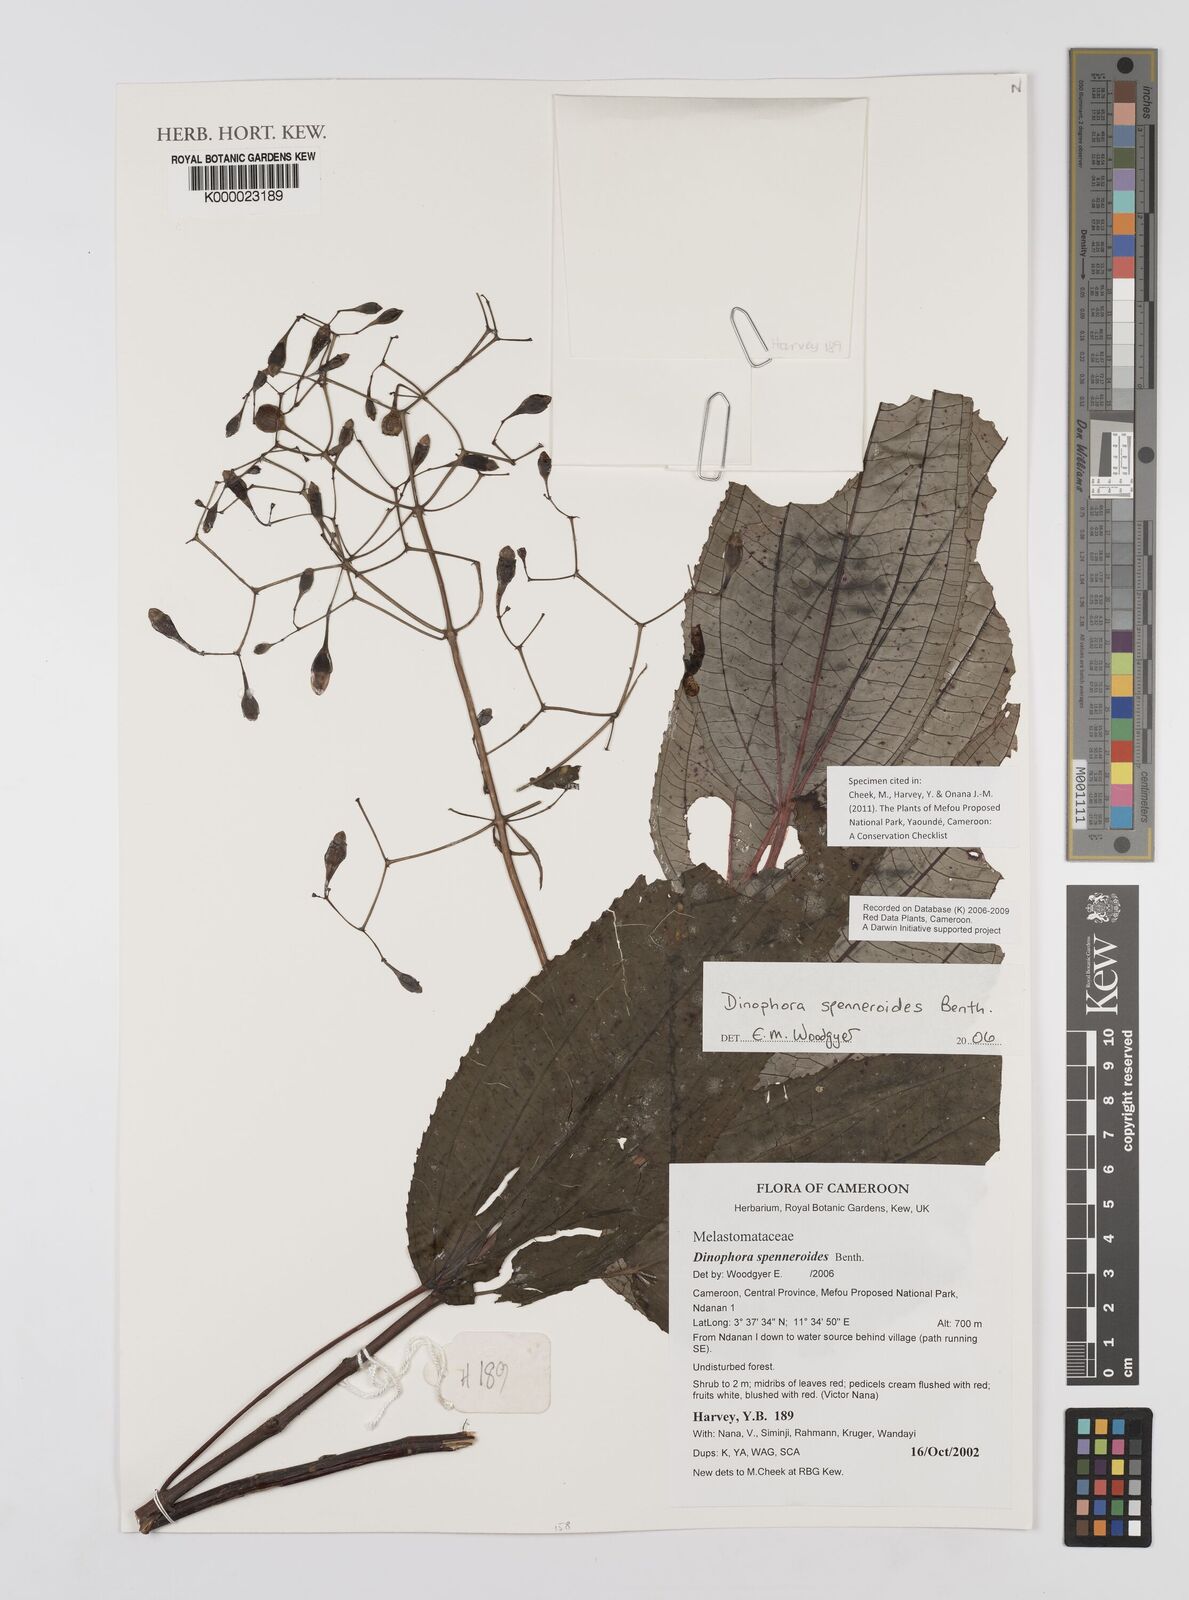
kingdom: Plantae
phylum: Tracheophyta
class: Magnoliopsida
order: Myrtales
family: Melastomataceae
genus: Dinophora
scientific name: Dinophora spenneroides
